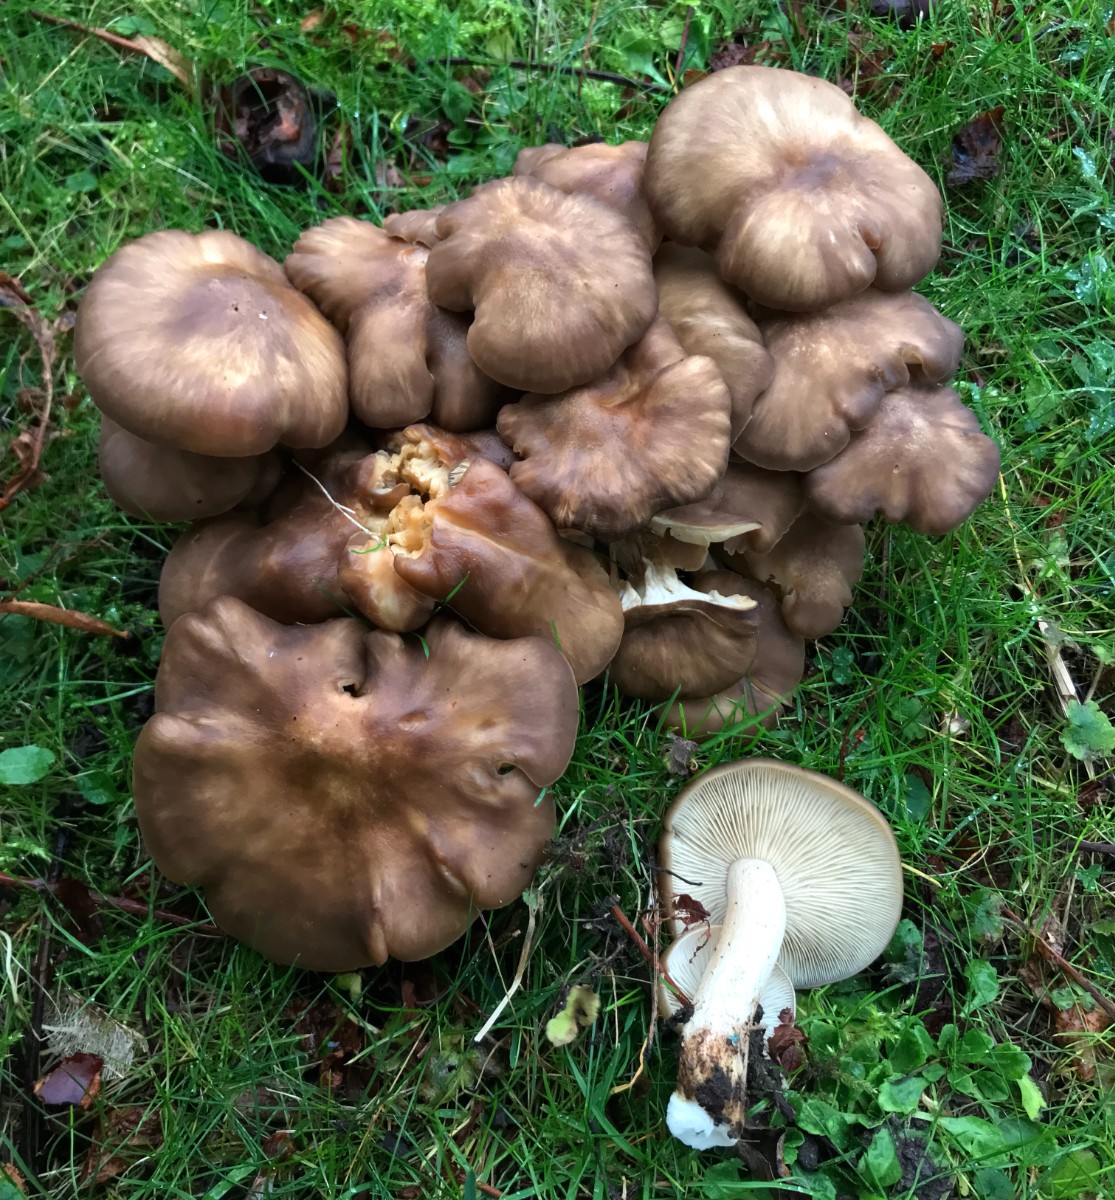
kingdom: Fungi
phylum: Basidiomycota
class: Agaricomycetes
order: Agaricales
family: Lyophyllaceae
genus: Lyophyllum
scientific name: Lyophyllum decastes
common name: Clustered domecap
